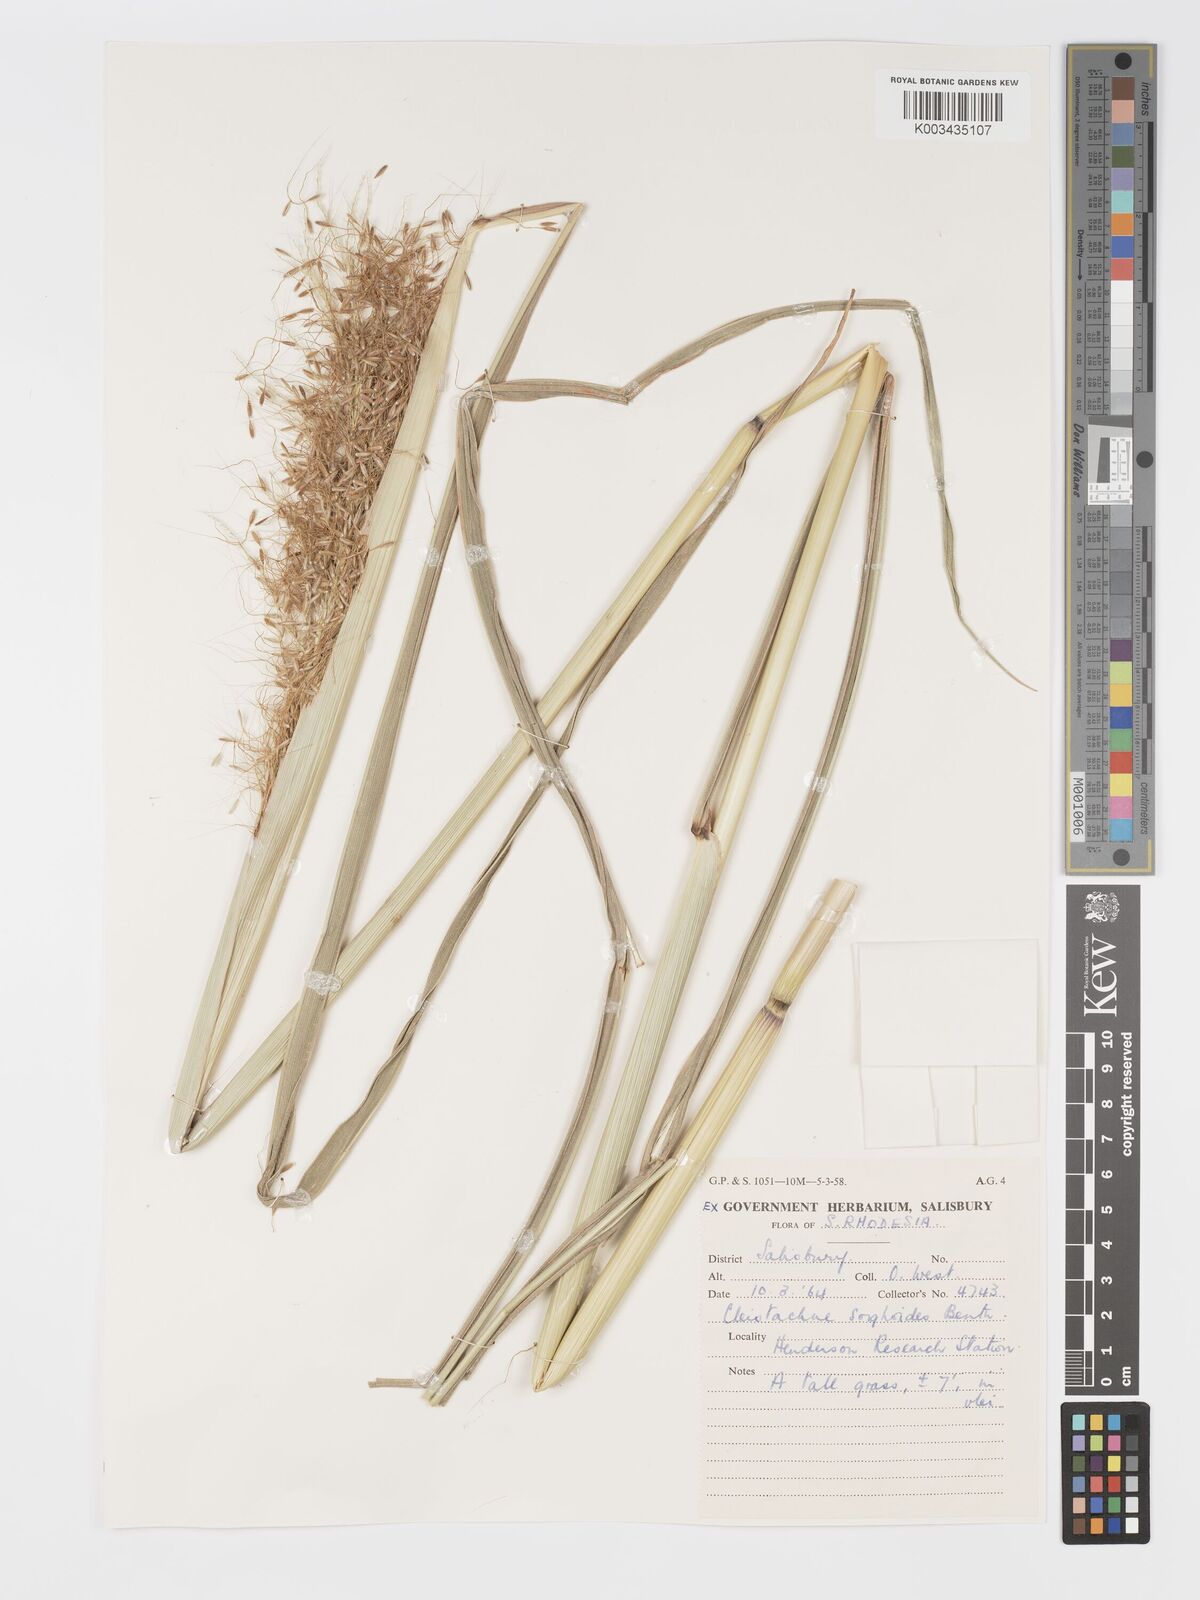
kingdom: Plantae
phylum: Tracheophyta
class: Liliopsida
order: Poales
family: Poaceae
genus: Cleistachne
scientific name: Cleistachne sorghoides
